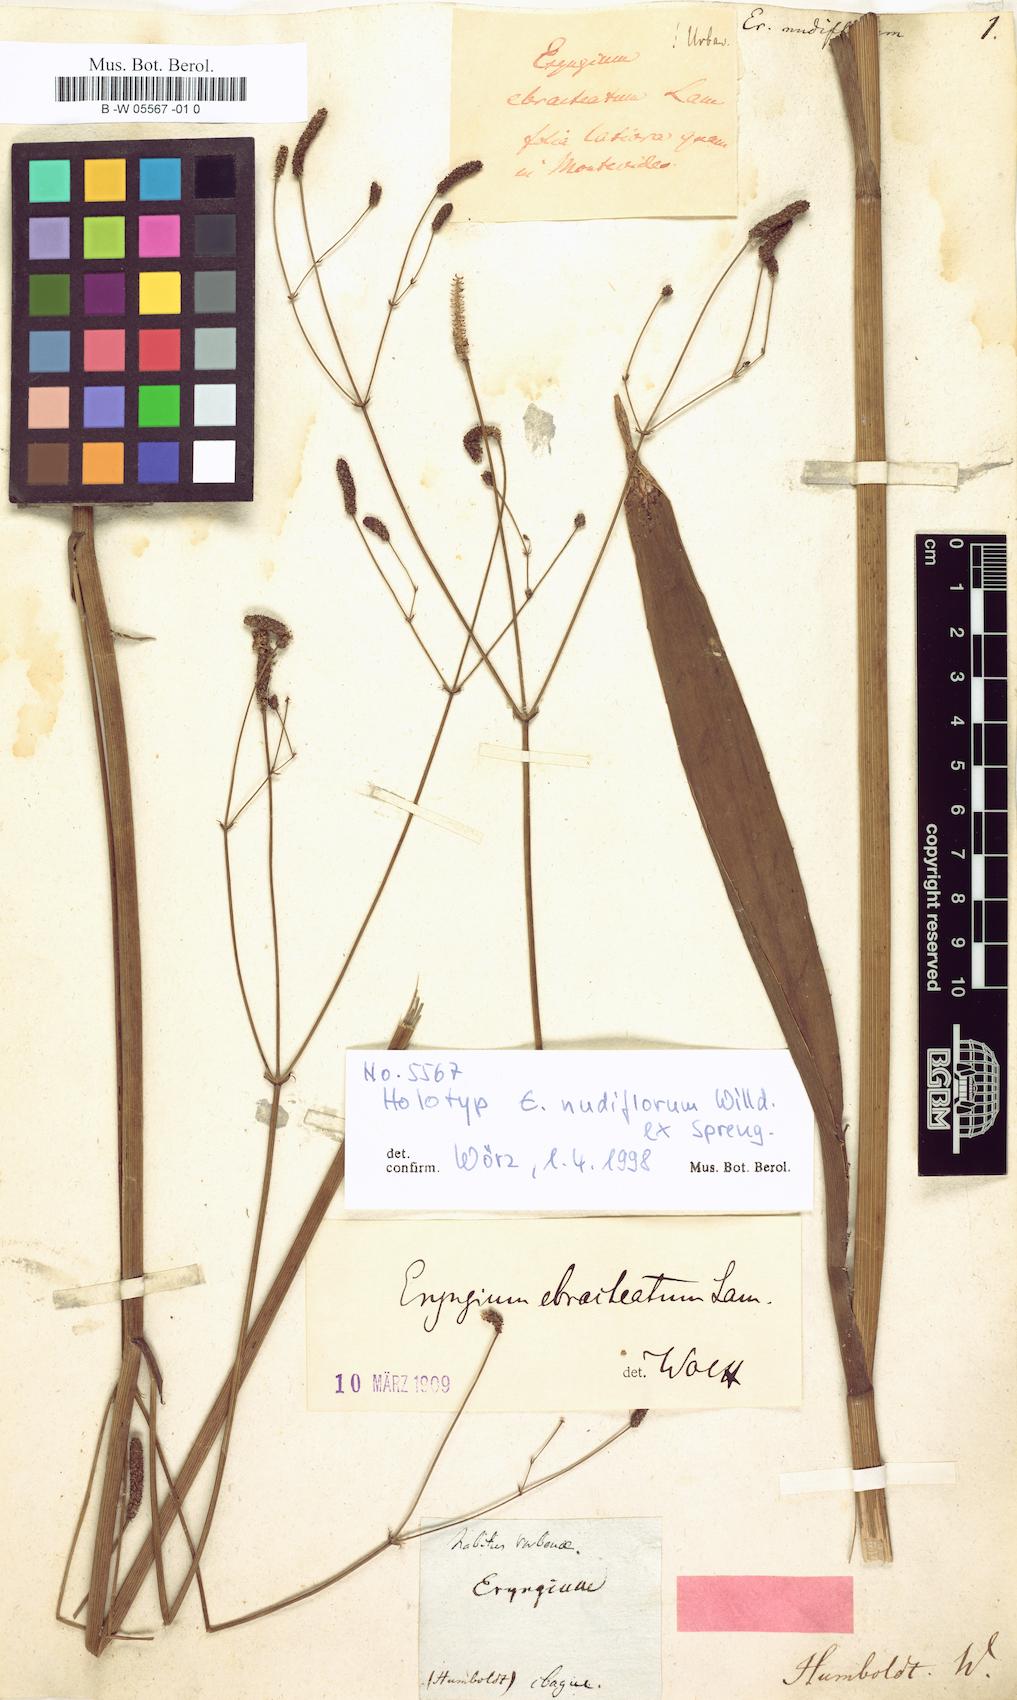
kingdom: Plantae
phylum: Tracheophyta
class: Magnoliopsida
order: Apiales
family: Apiaceae
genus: Eryngium
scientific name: Eryngium ebracteatum
